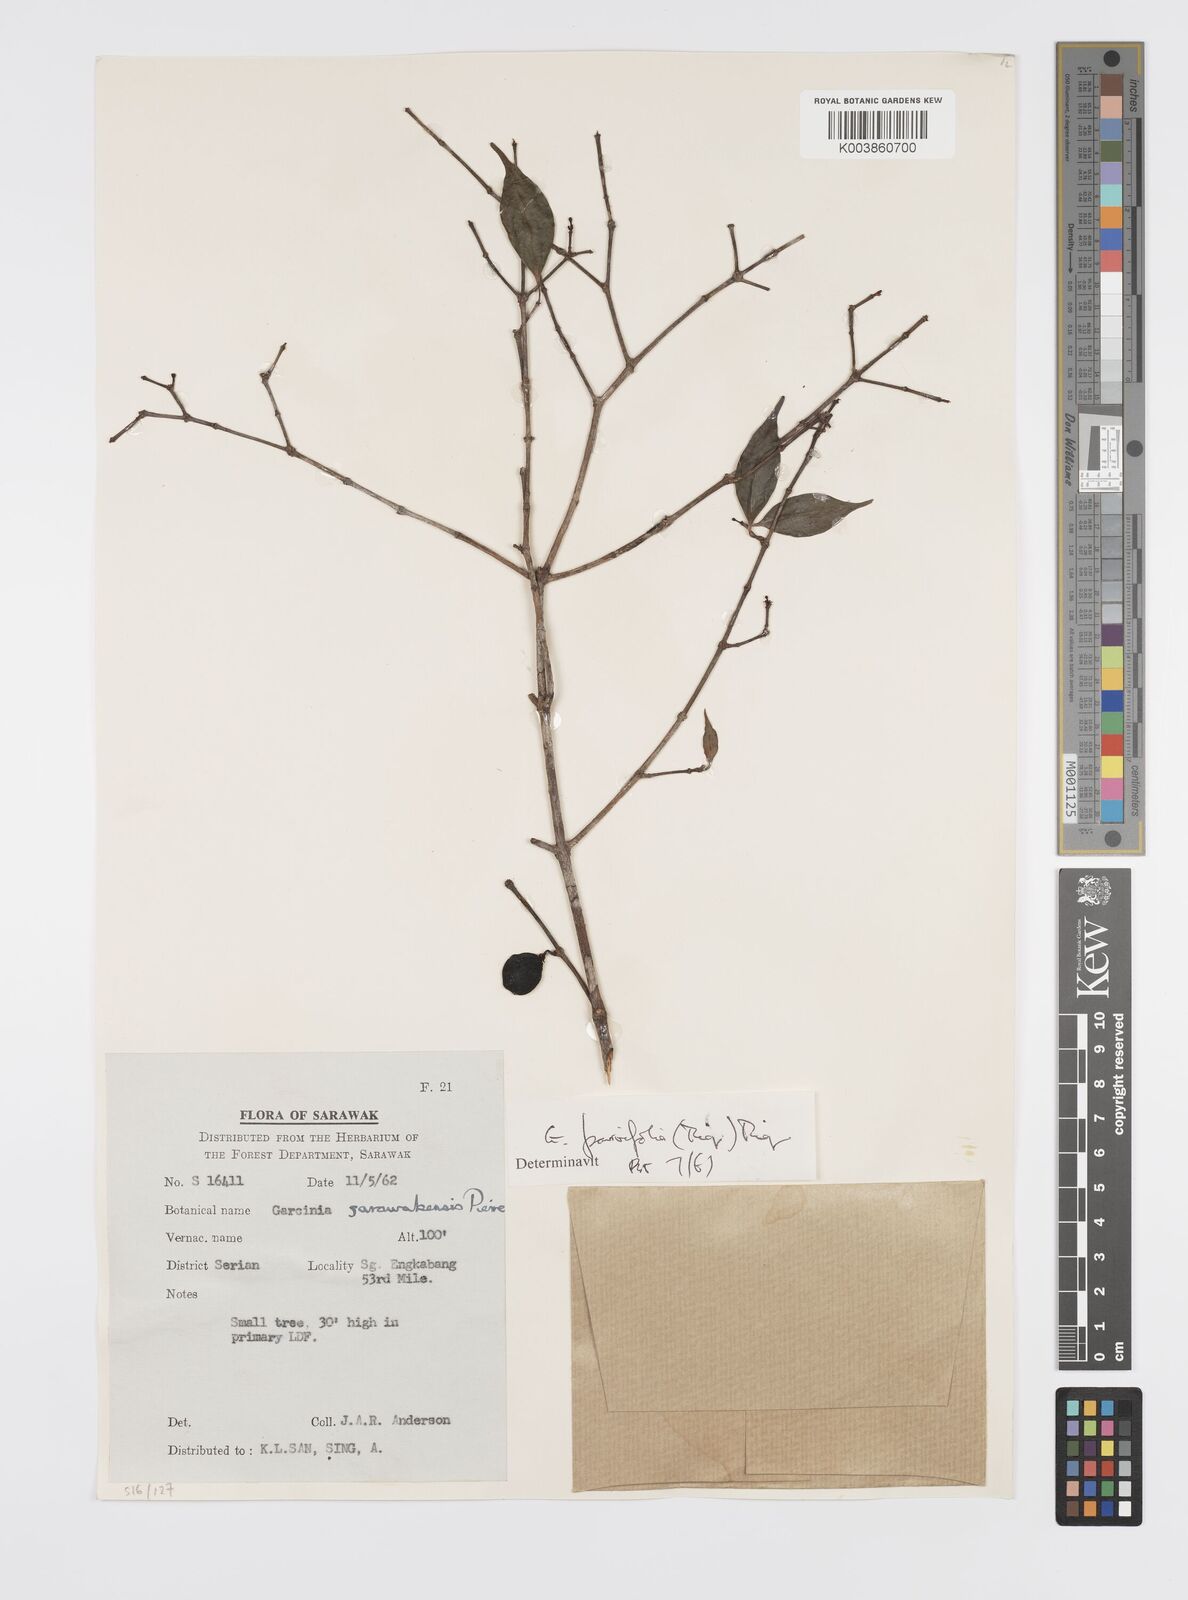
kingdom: Plantae
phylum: Tracheophyta
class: Magnoliopsida
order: Malpighiales
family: Clusiaceae
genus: Garcinia
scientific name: Garcinia parvifolia
